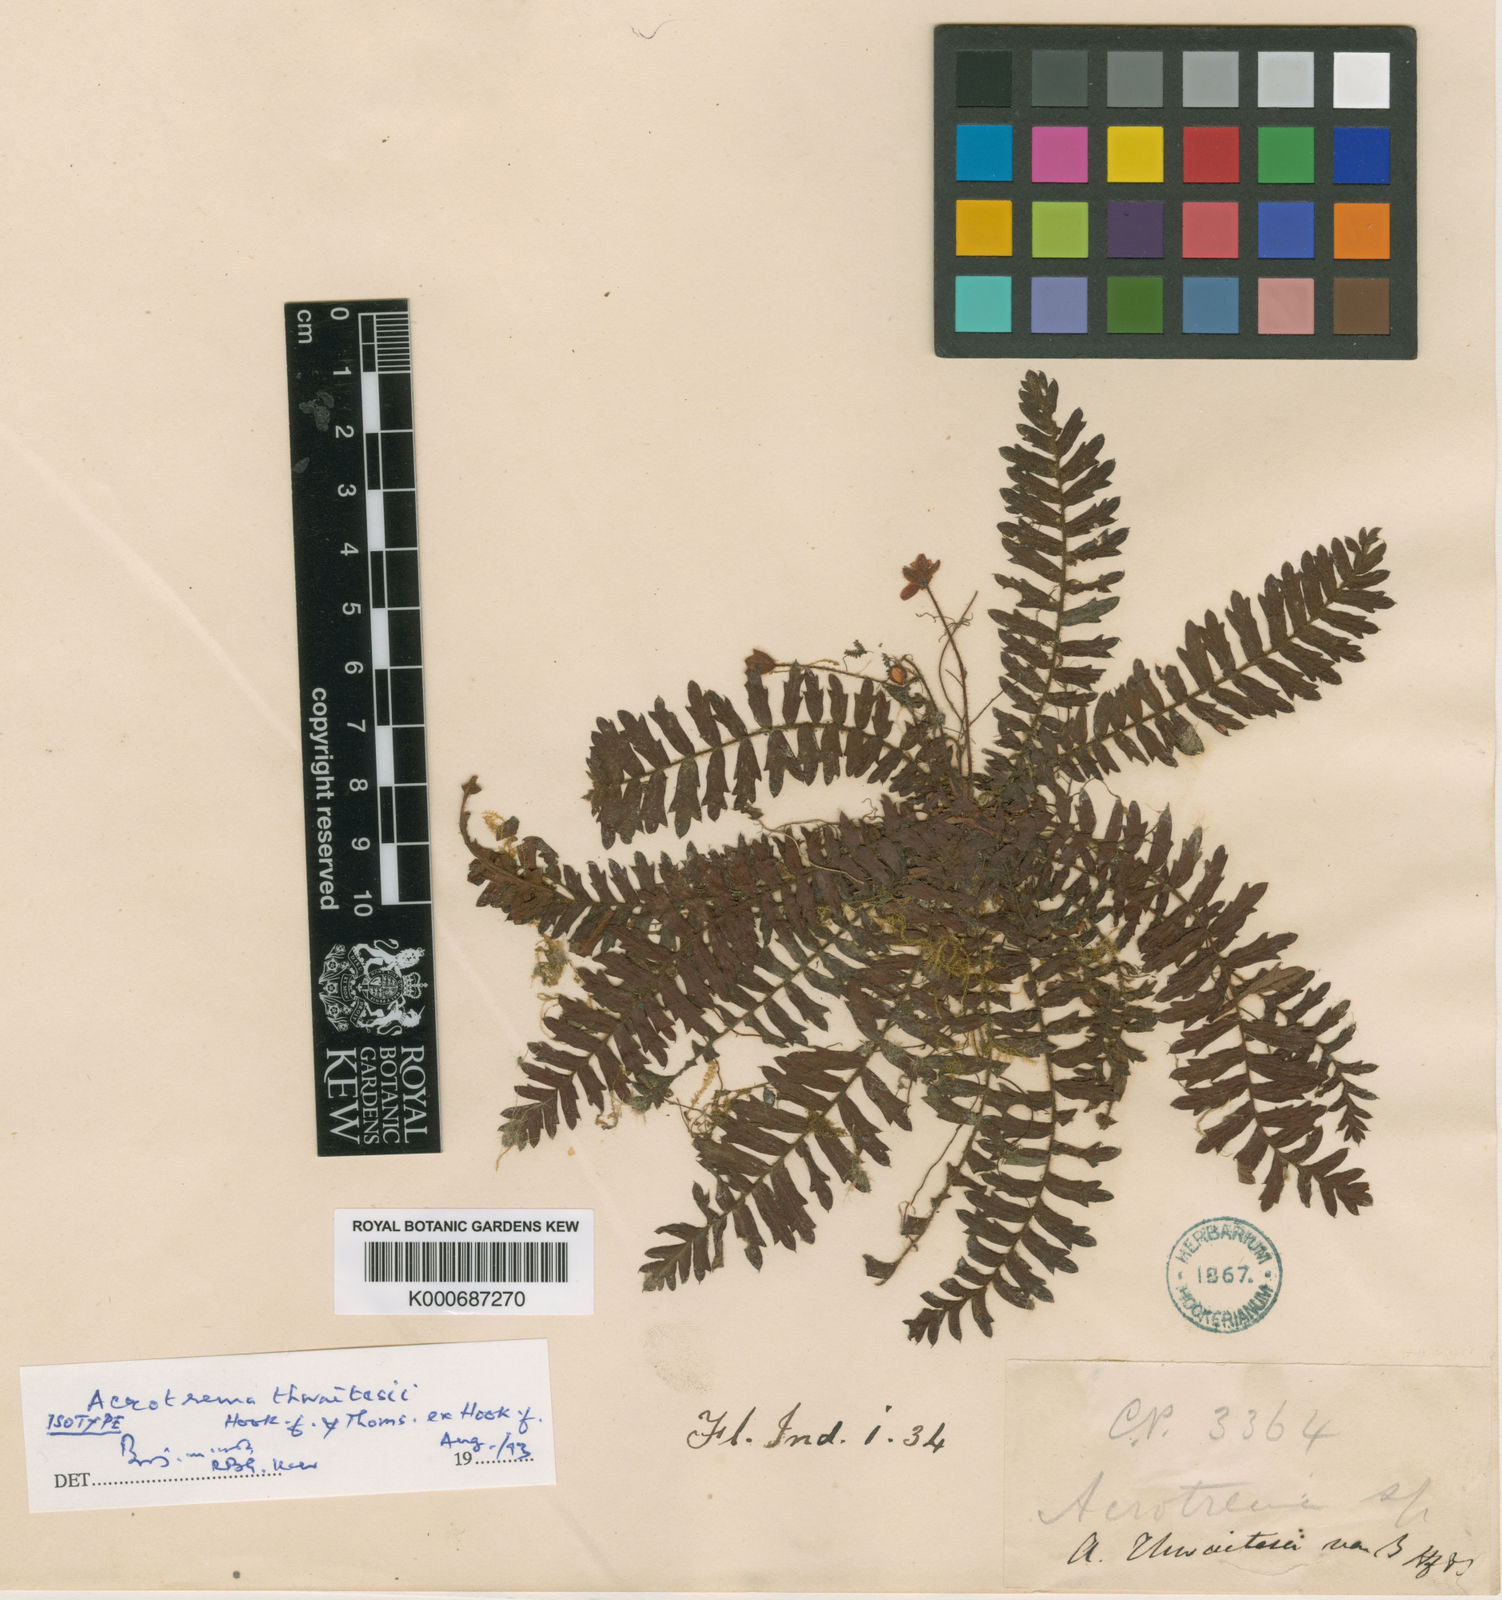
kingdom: Plantae
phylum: Tracheophyta
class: Magnoliopsida
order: Dilleniales
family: Dilleniaceae
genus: Acrotrema
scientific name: Acrotrema thwaitesii
